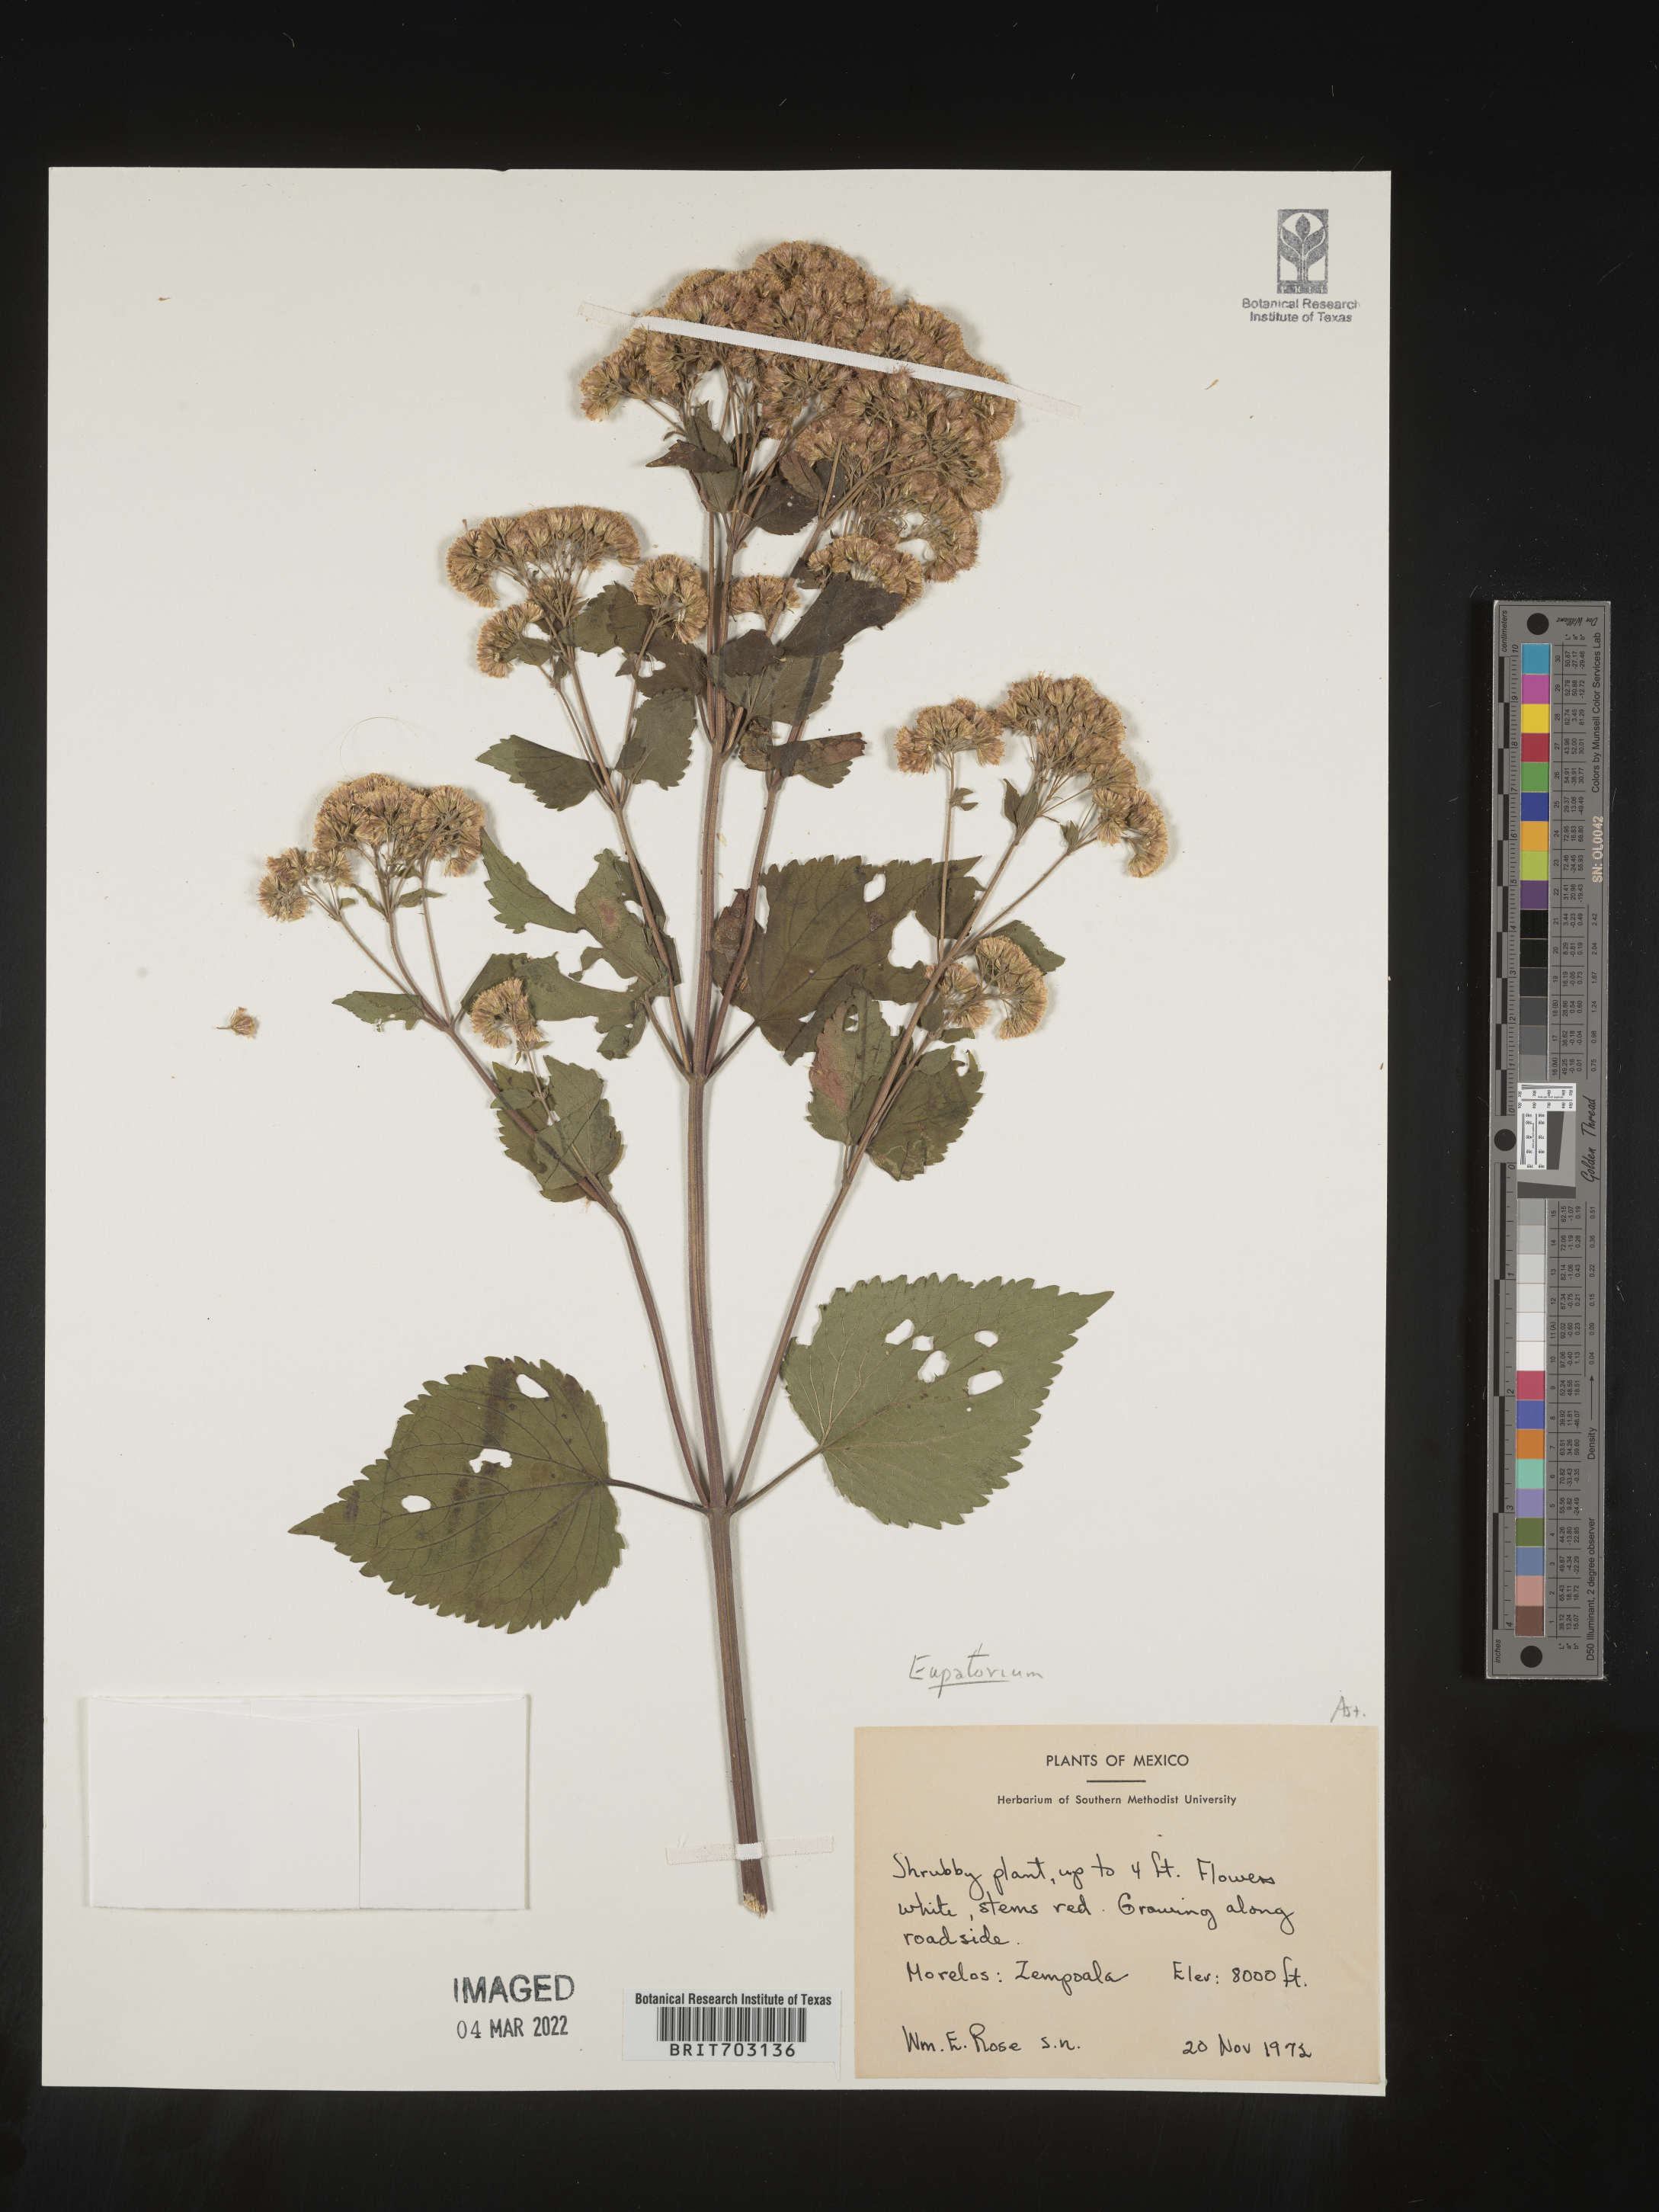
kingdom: Plantae
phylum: Tracheophyta
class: Magnoliopsida
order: Asterales
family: Asteraceae
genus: Eupatorium
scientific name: Eupatorium
